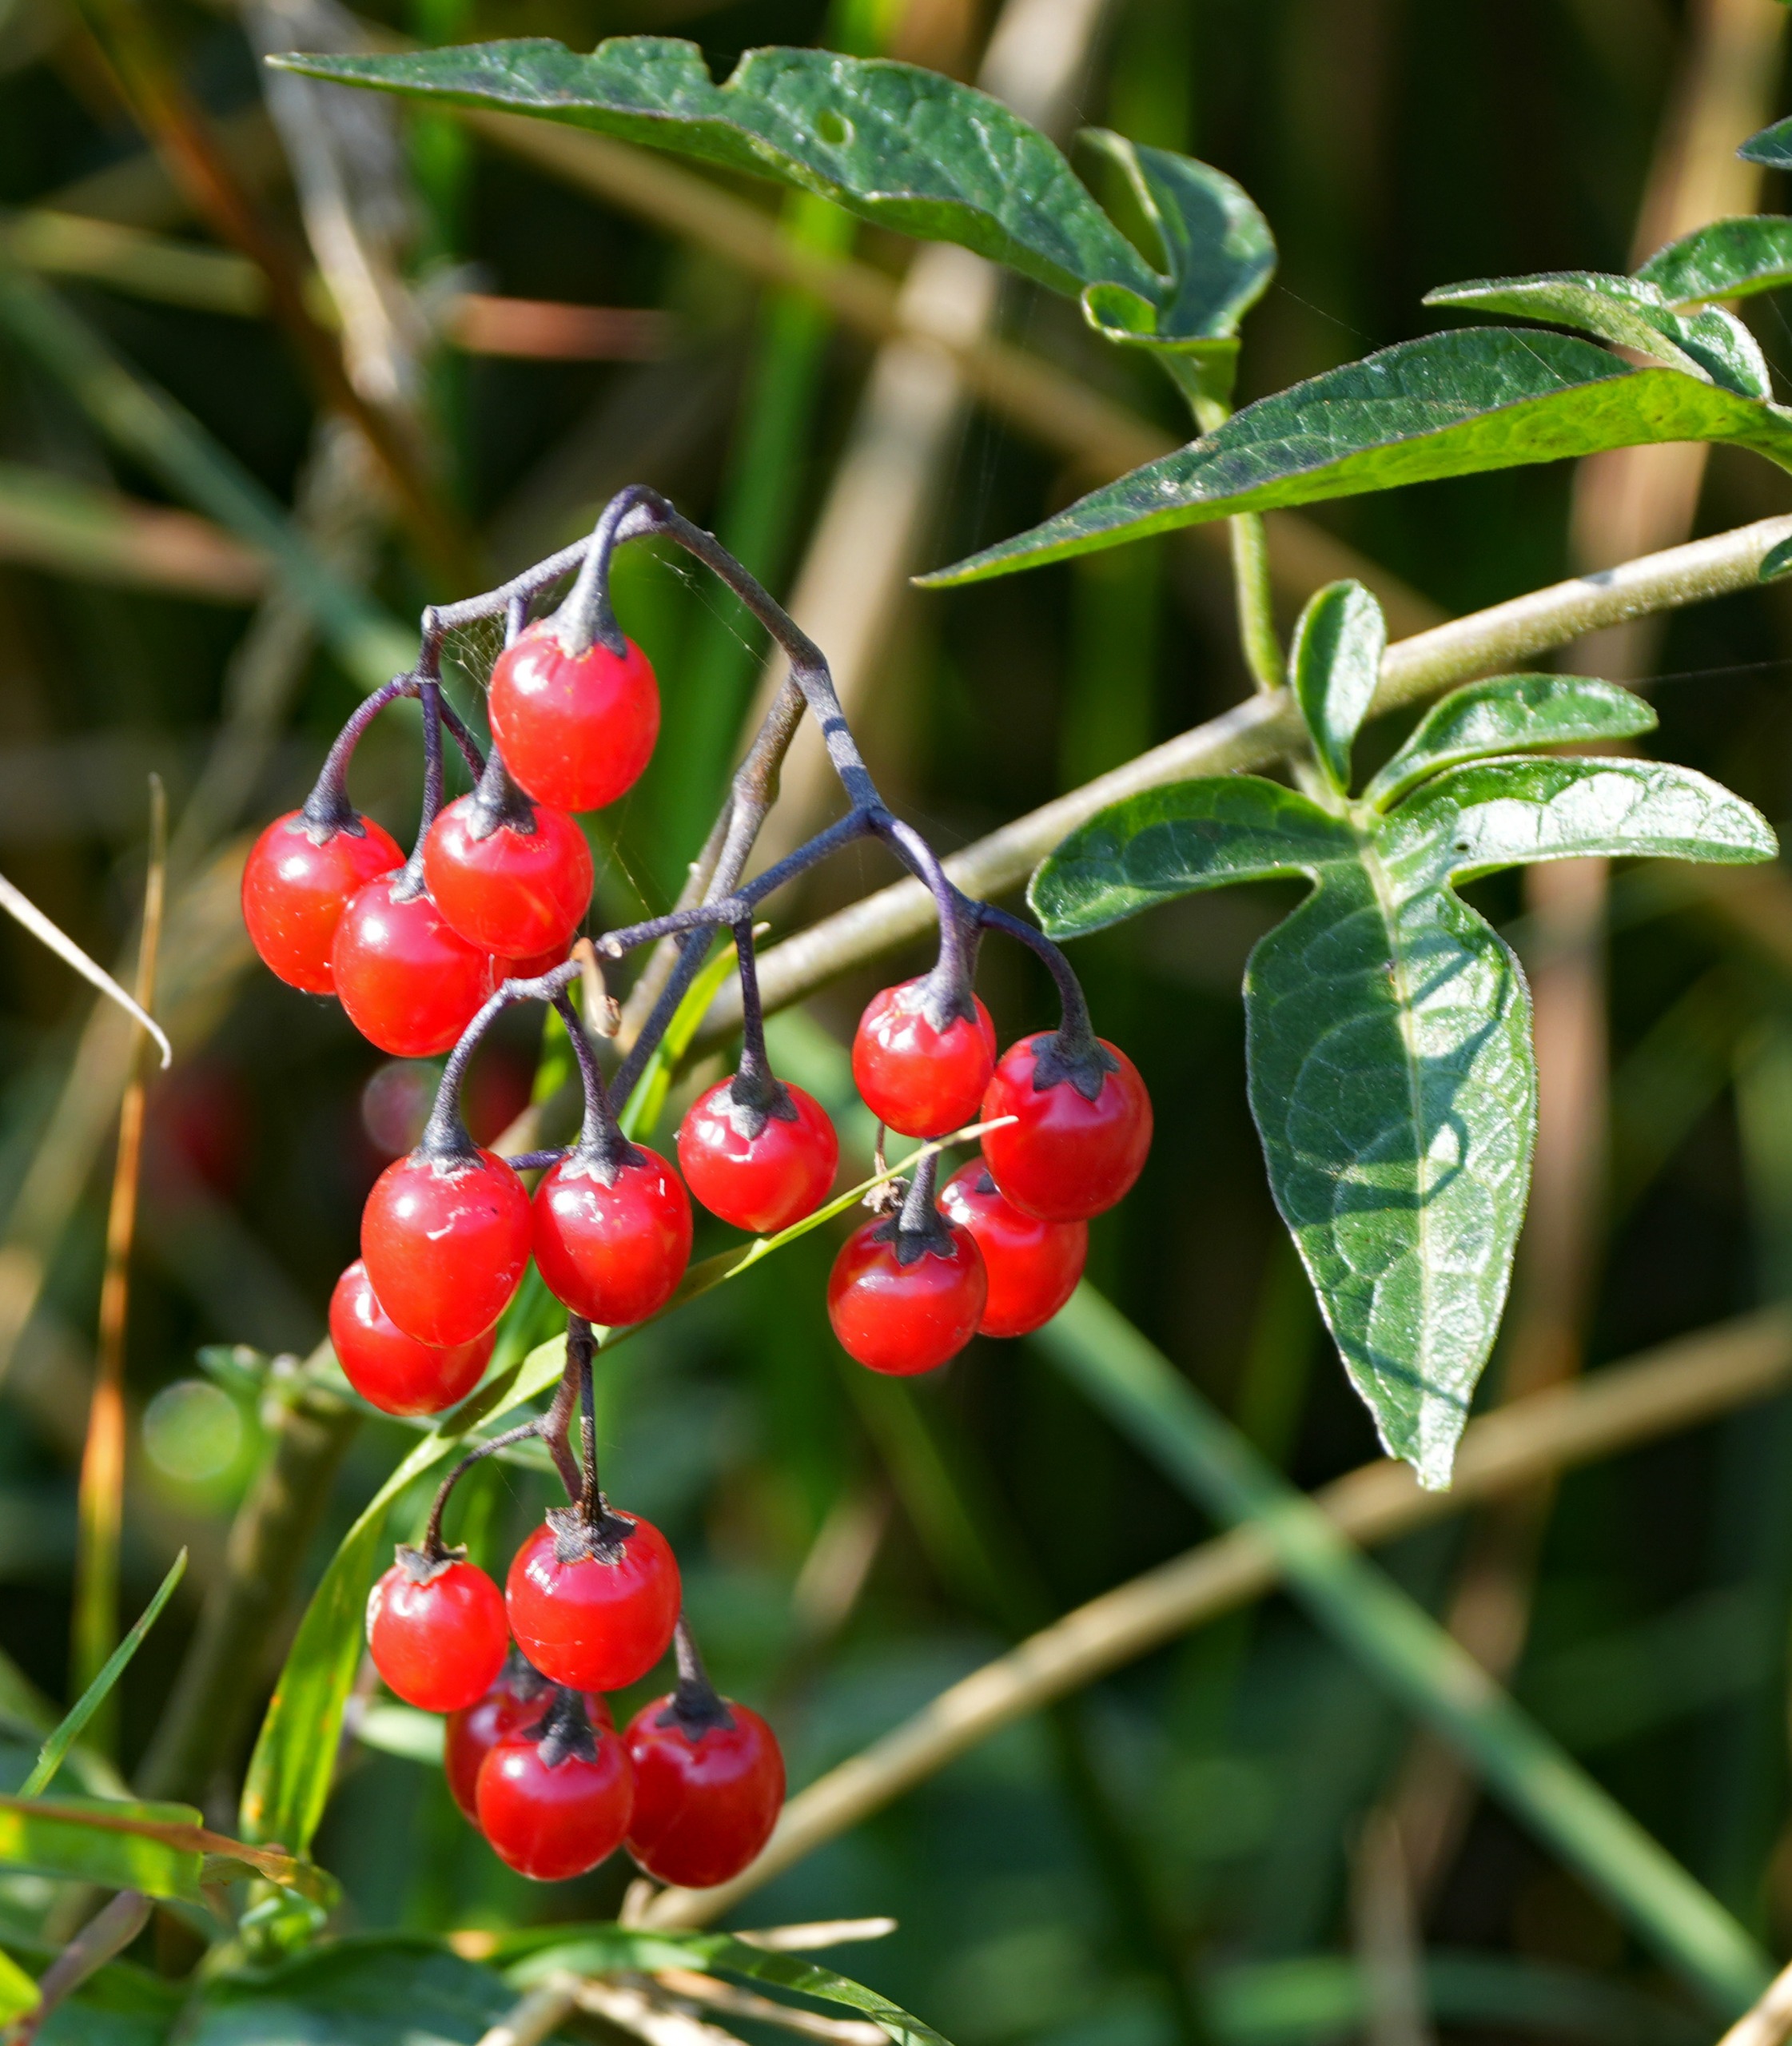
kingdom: Plantae
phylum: Tracheophyta
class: Magnoliopsida
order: Solanales
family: Solanaceae
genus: Solanum
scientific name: Solanum dulcamara
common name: Bittersød natskygge
